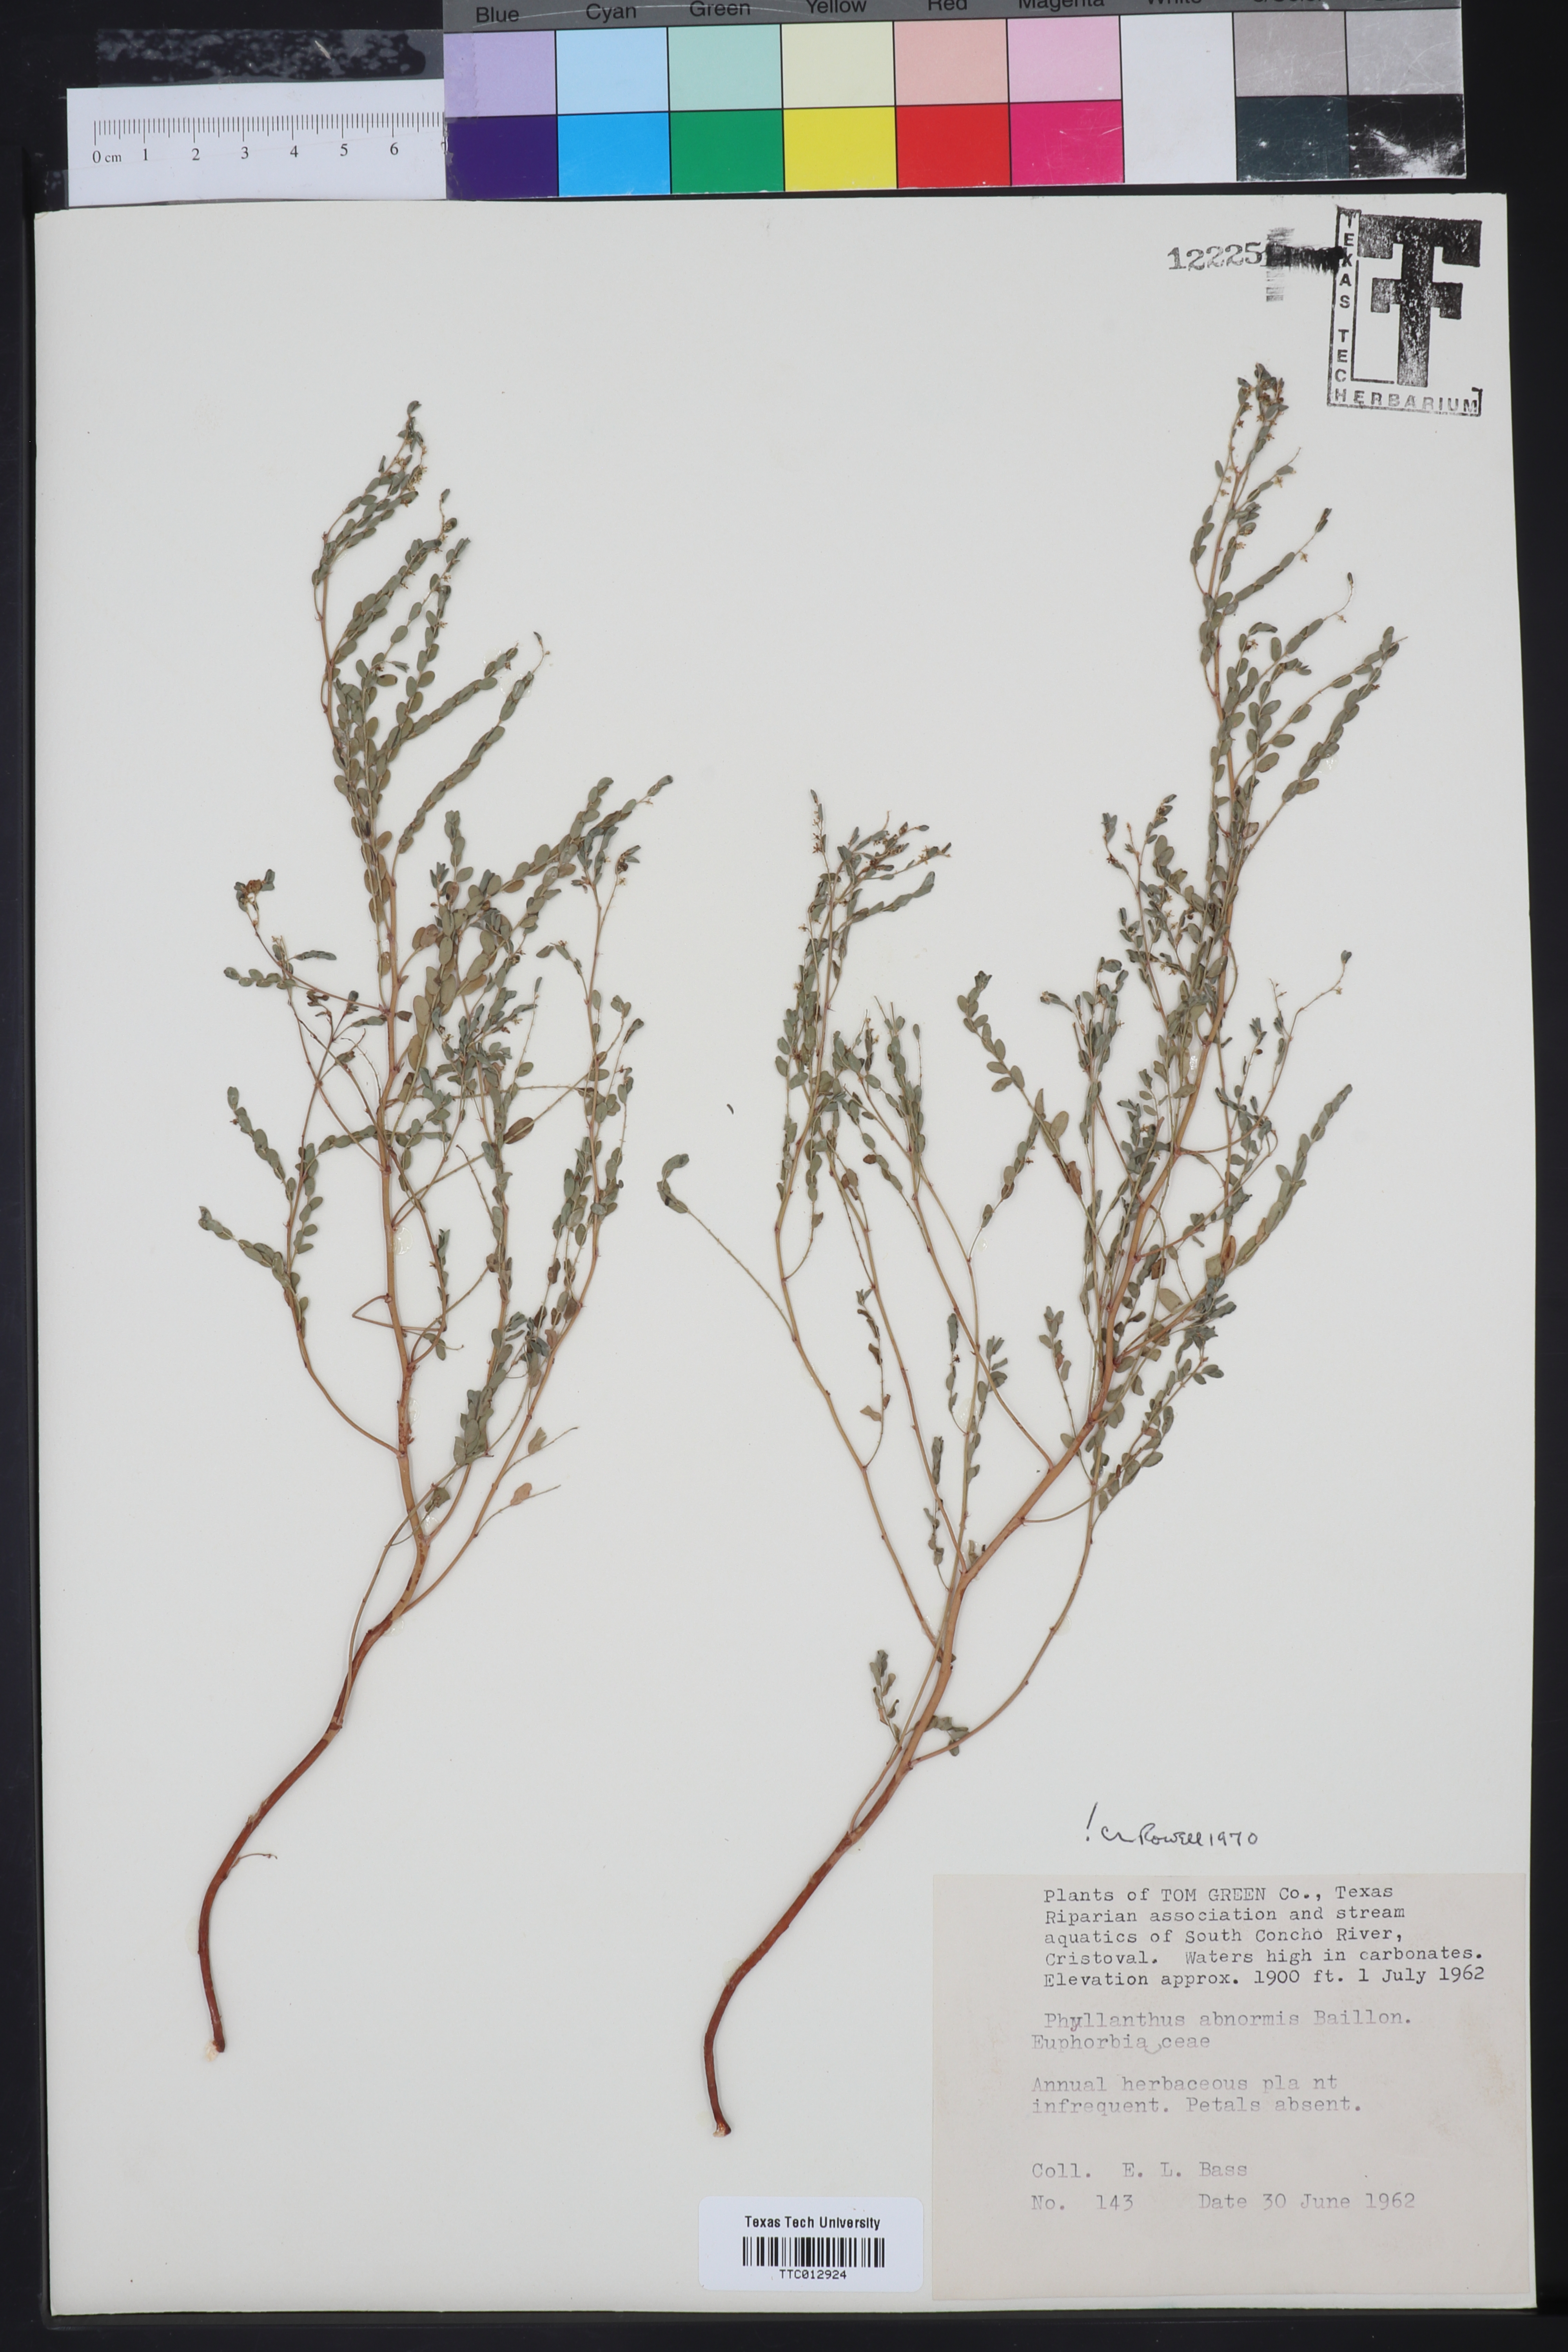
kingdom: Plantae
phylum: Tracheophyta
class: Magnoliopsida
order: Malpighiales
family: Phyllanthaceae
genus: Phyllanthus
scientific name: Phyllanthus abnormis
